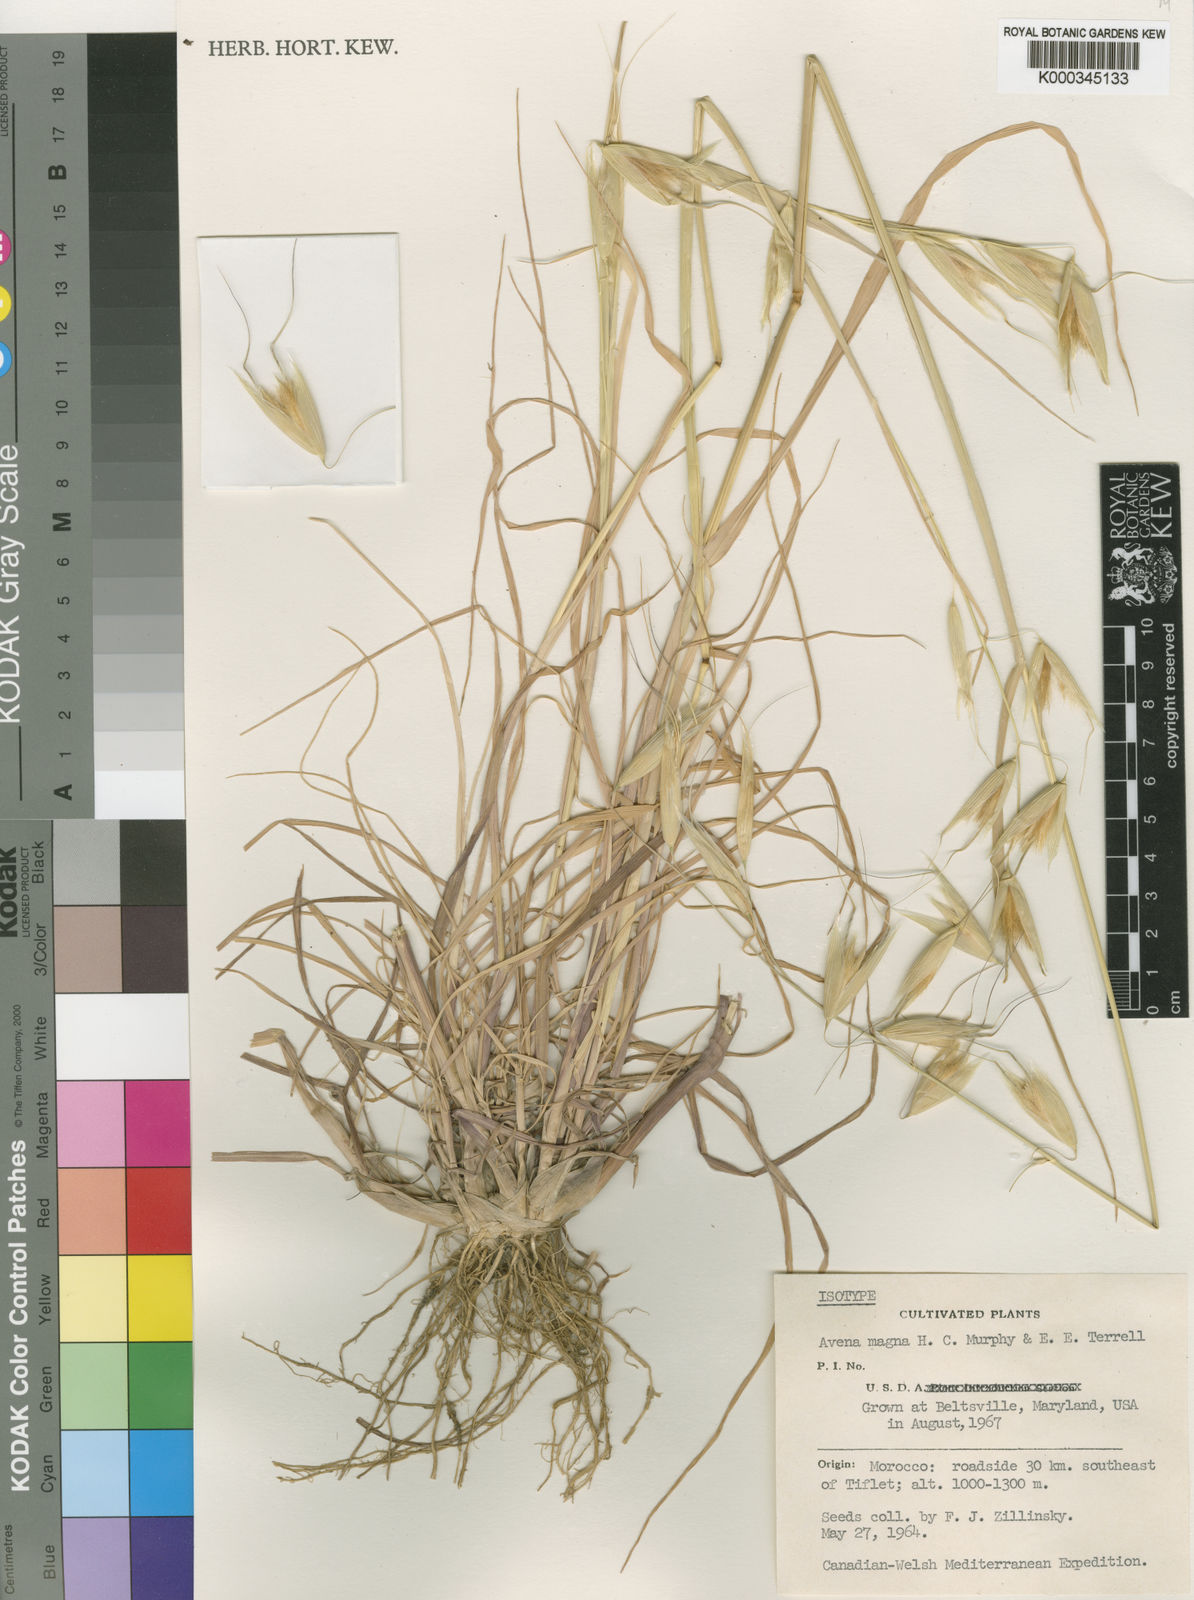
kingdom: Plantae
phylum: Tracheophyta
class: Liliopsida
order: Poales
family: Poaceae
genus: Avena
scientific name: Avena sterilis
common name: Animated oat
